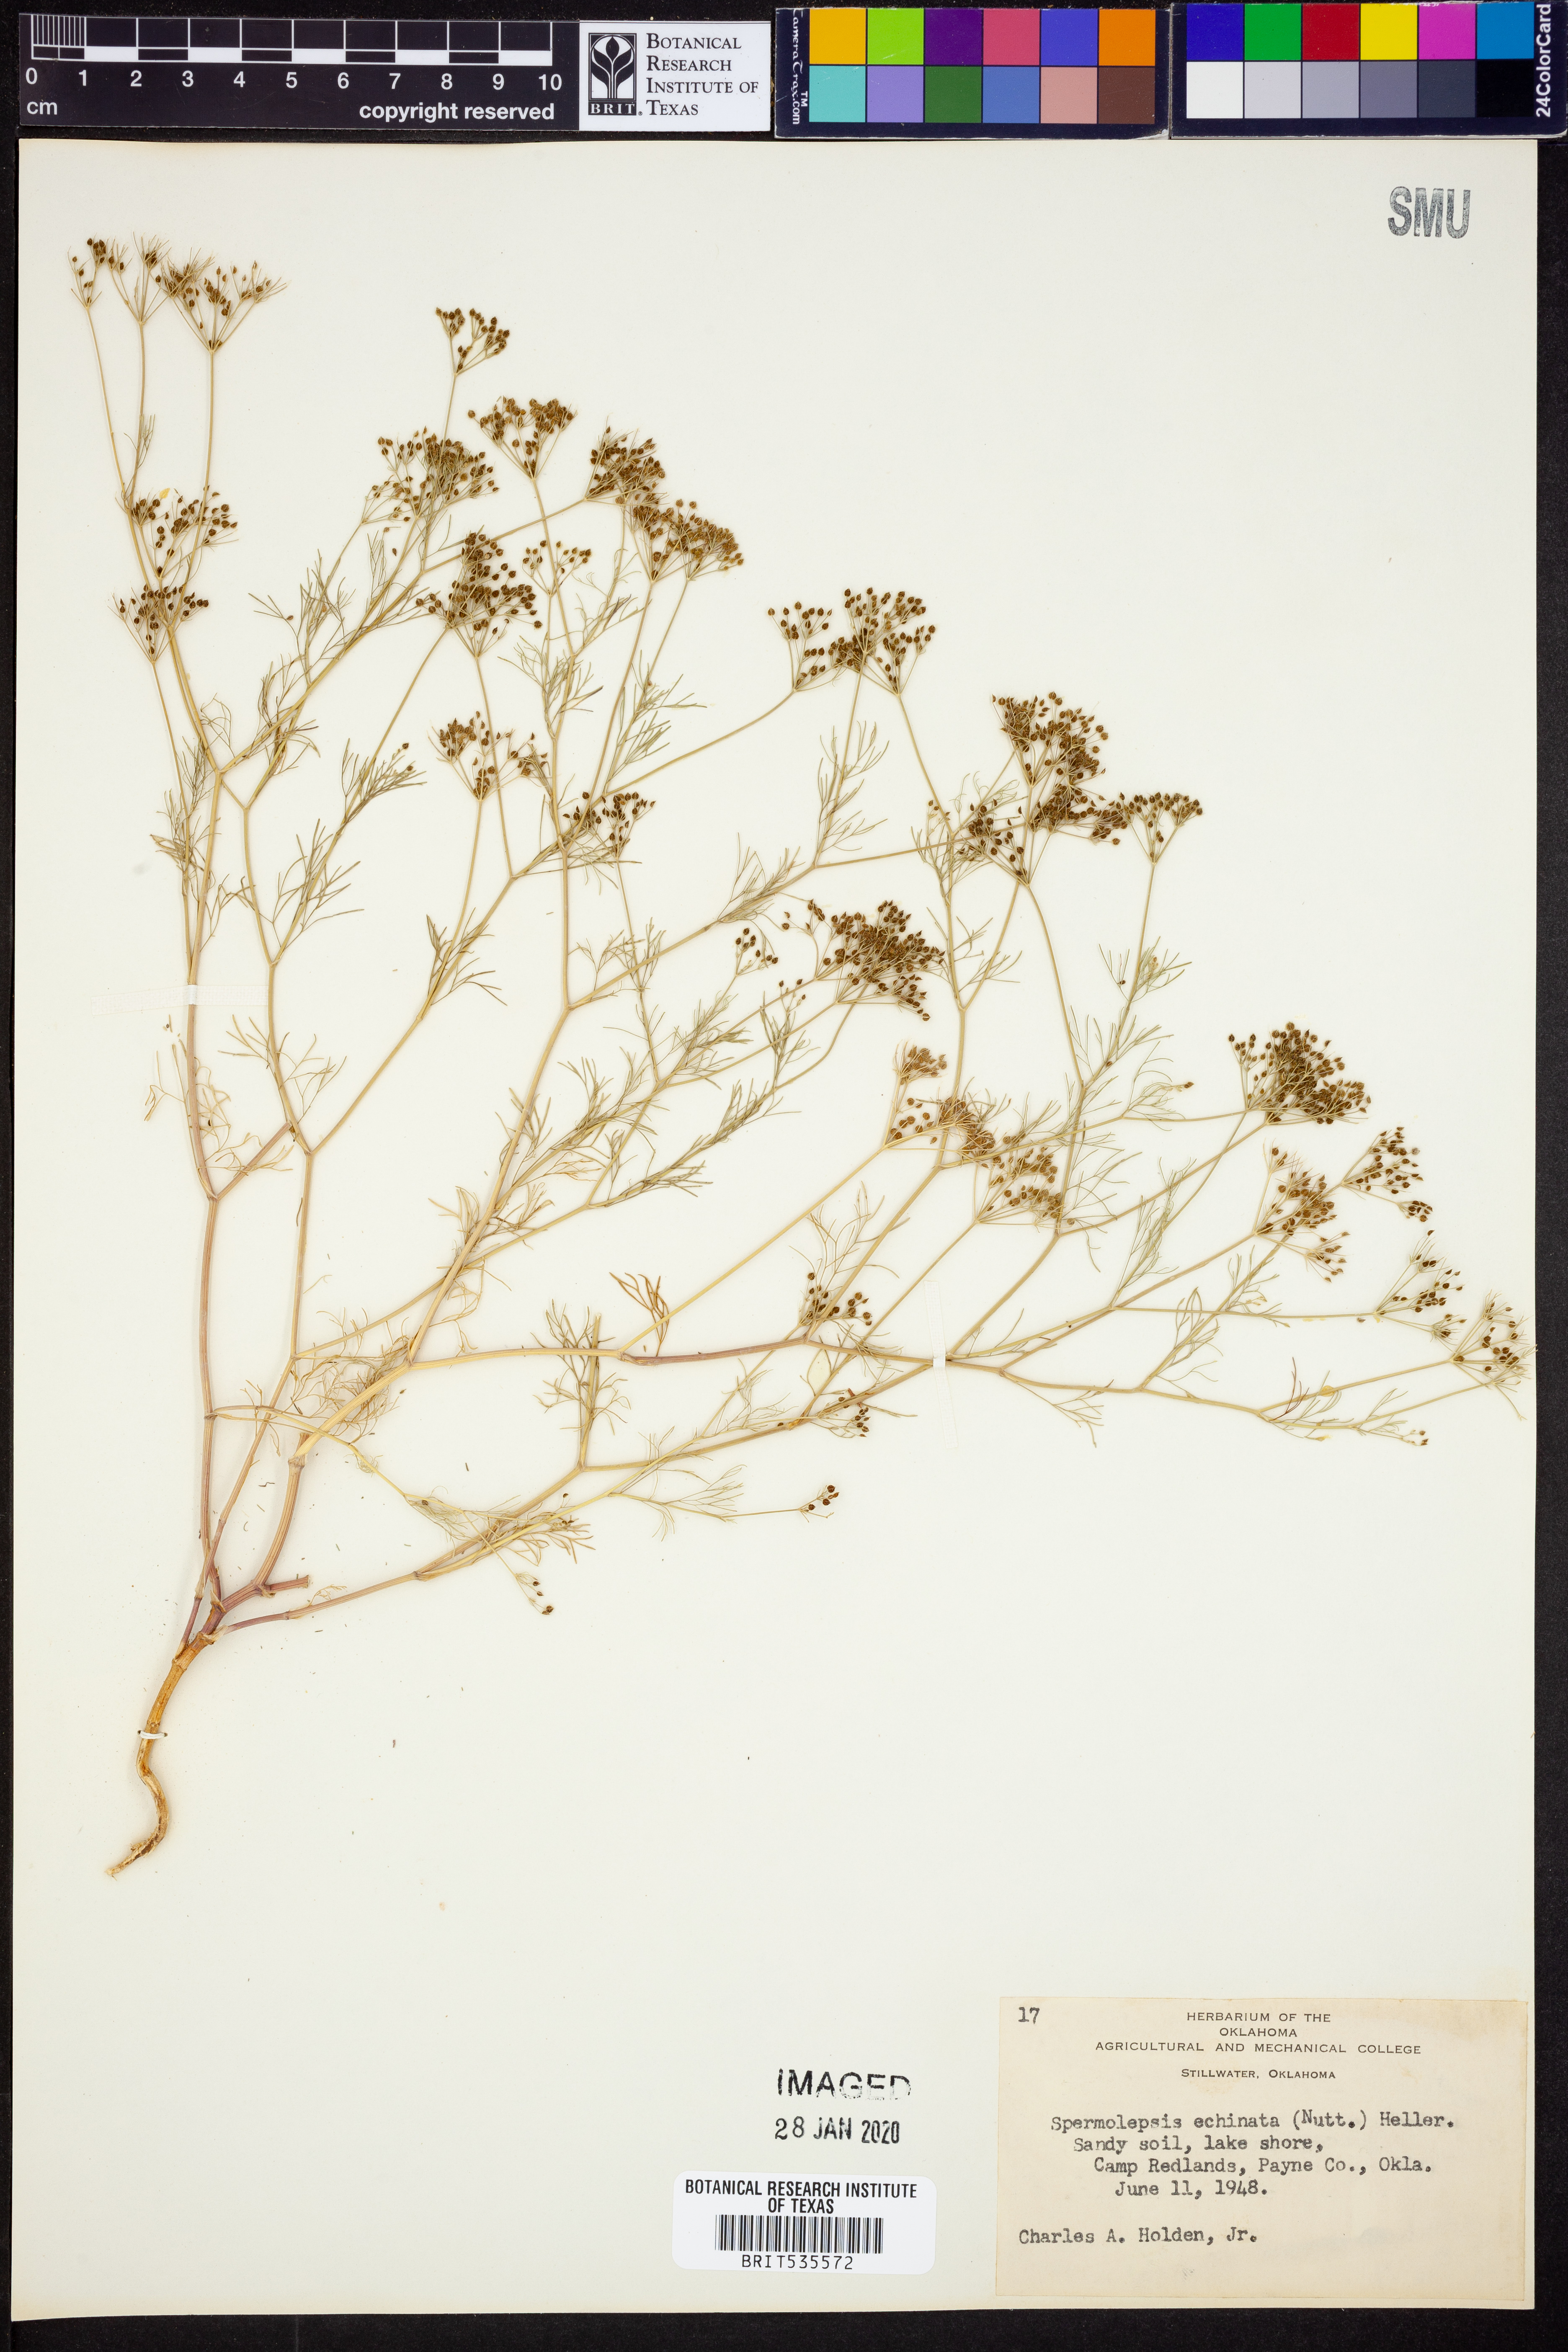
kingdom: Plantae
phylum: Tracheophyta
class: Magnoliopsida
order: Apiales
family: Apiaceae
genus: Spermolepis
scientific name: Spermolepis echinata
